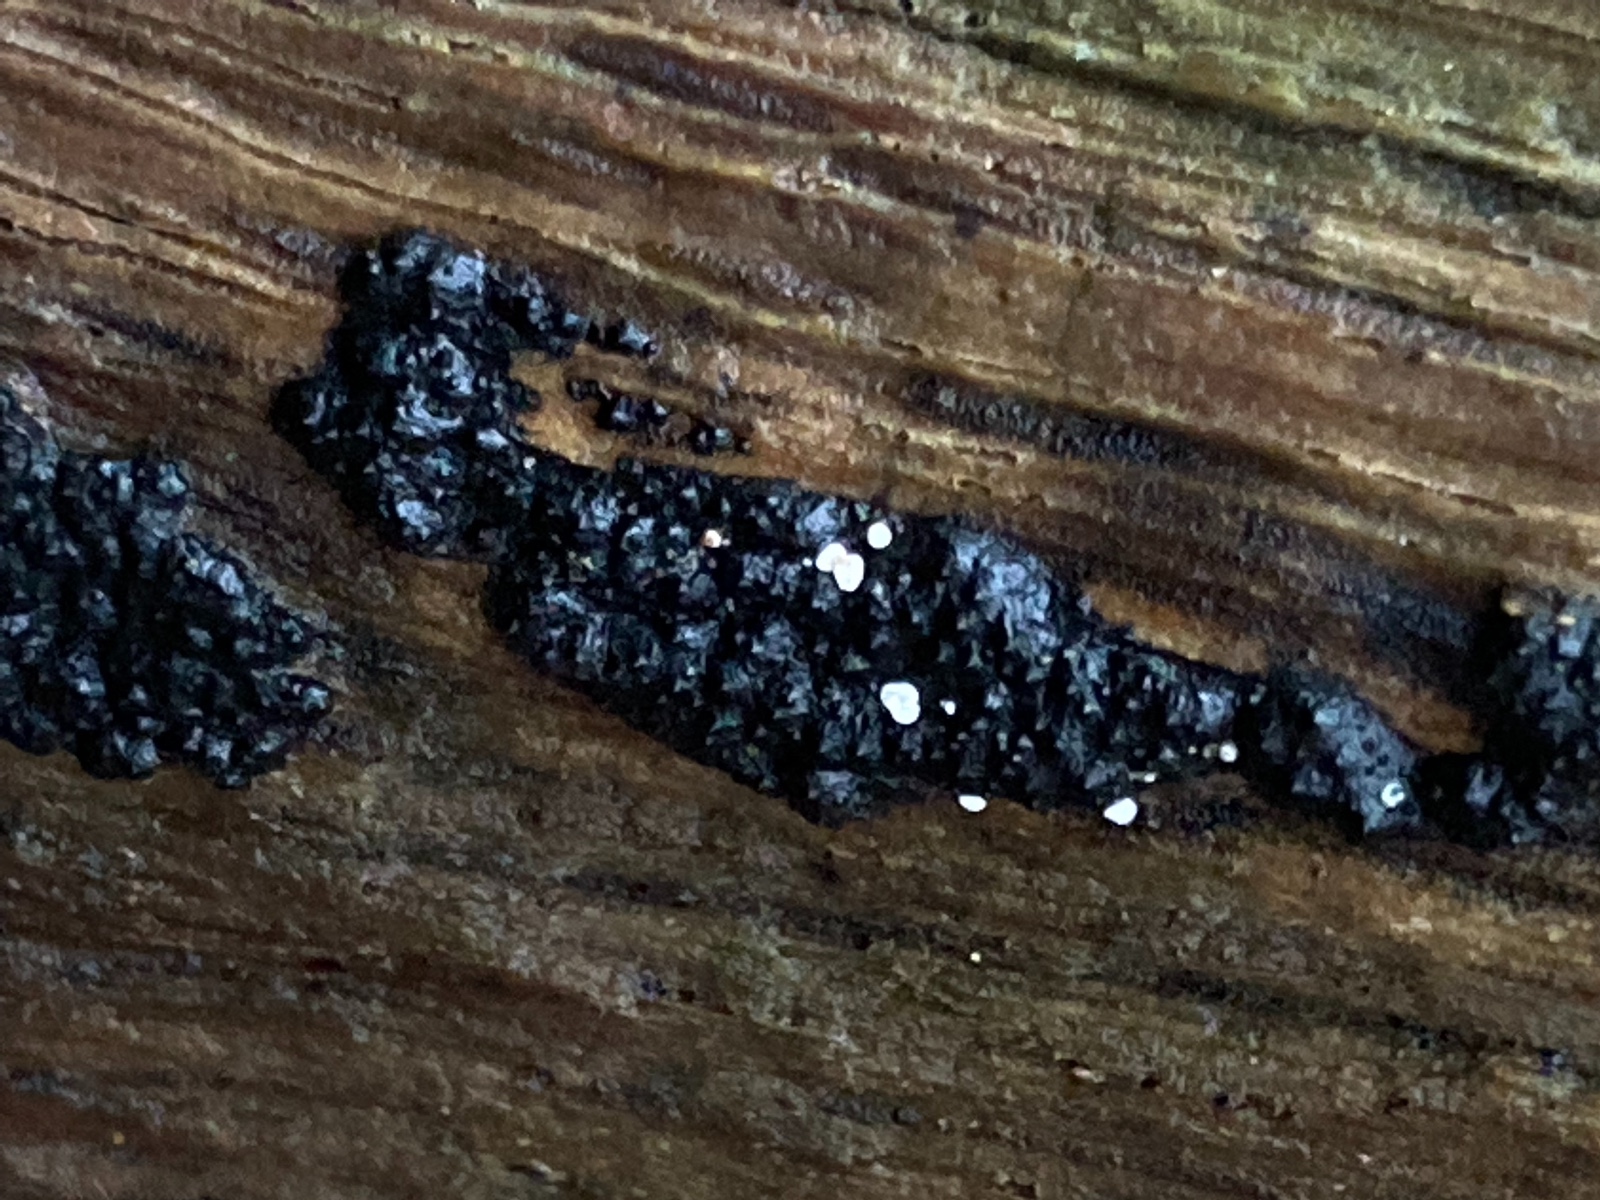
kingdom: Fungi
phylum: Ascomycota
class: Leotiomycetes
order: Helotiales
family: Hyaloscyphaceae
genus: Polydesmia
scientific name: Polydesmia pruinosa
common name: dunskive
